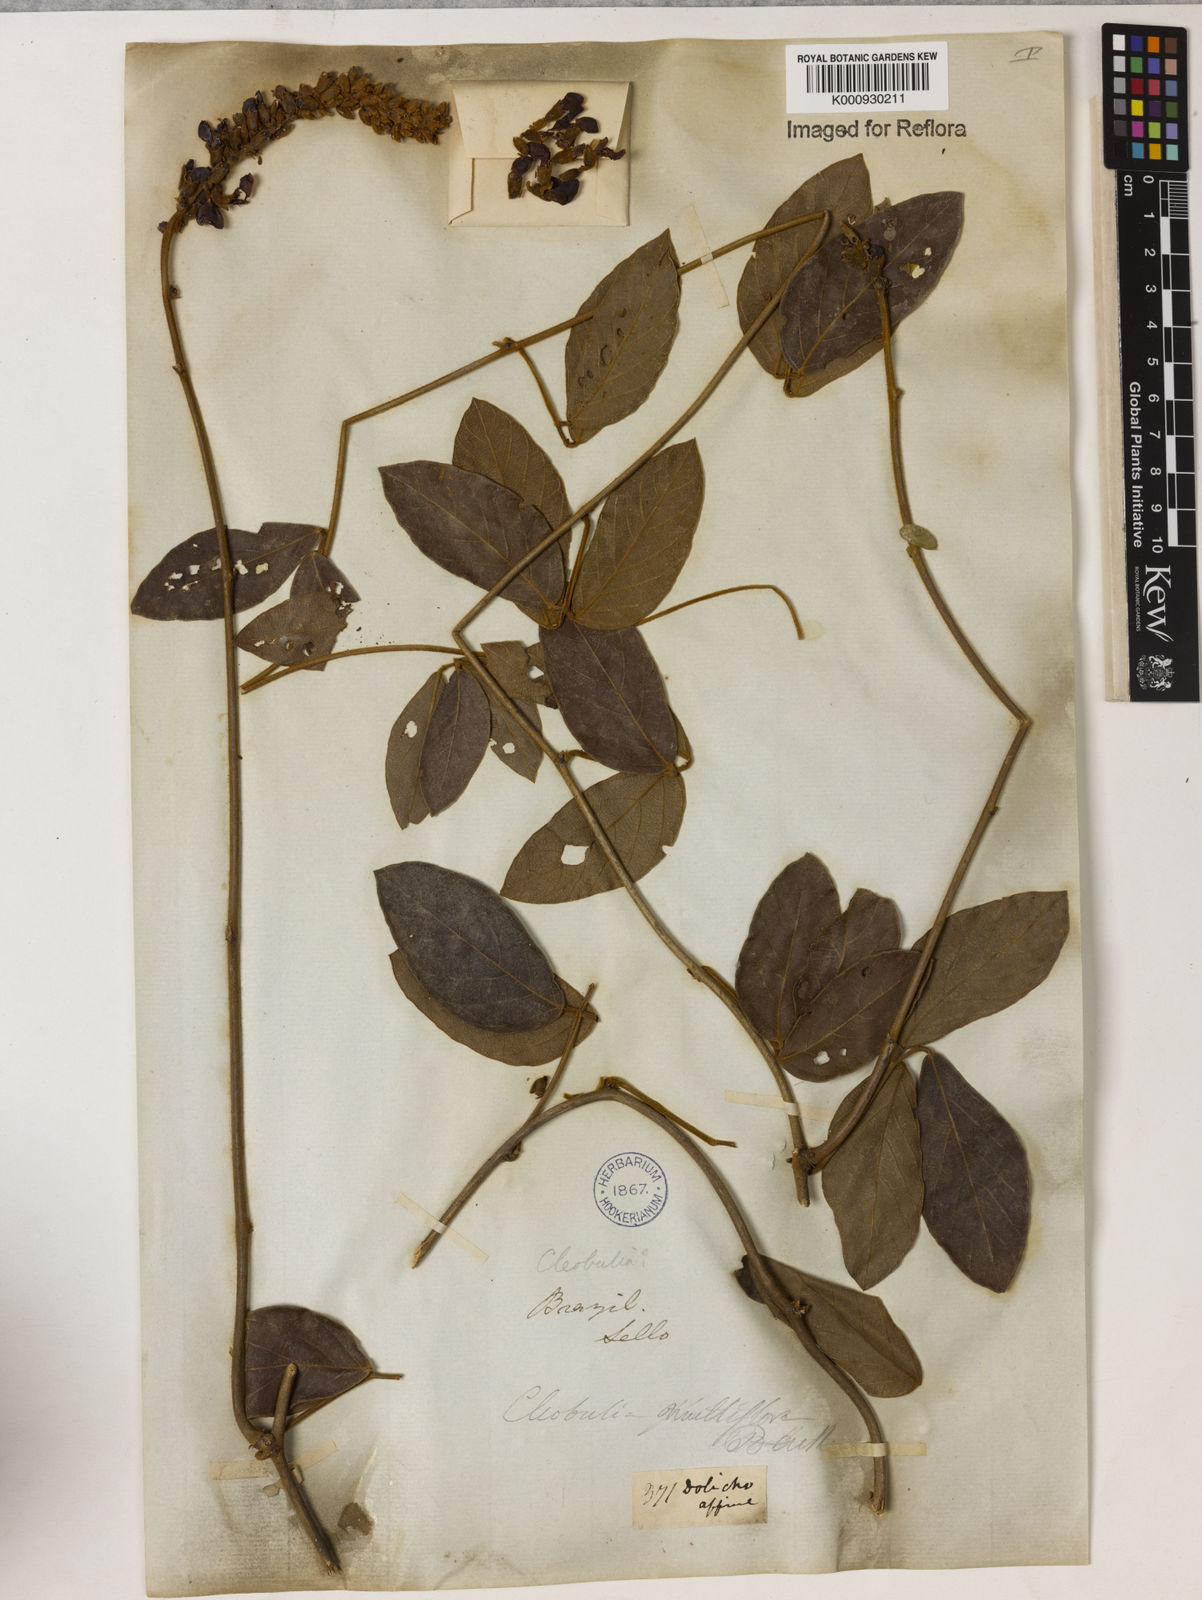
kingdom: Plantae
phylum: Tracheophyta
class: Magnoliopsida
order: Fabales
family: Fabaceae
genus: Cleobulia
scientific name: Cleobulia coccinea
